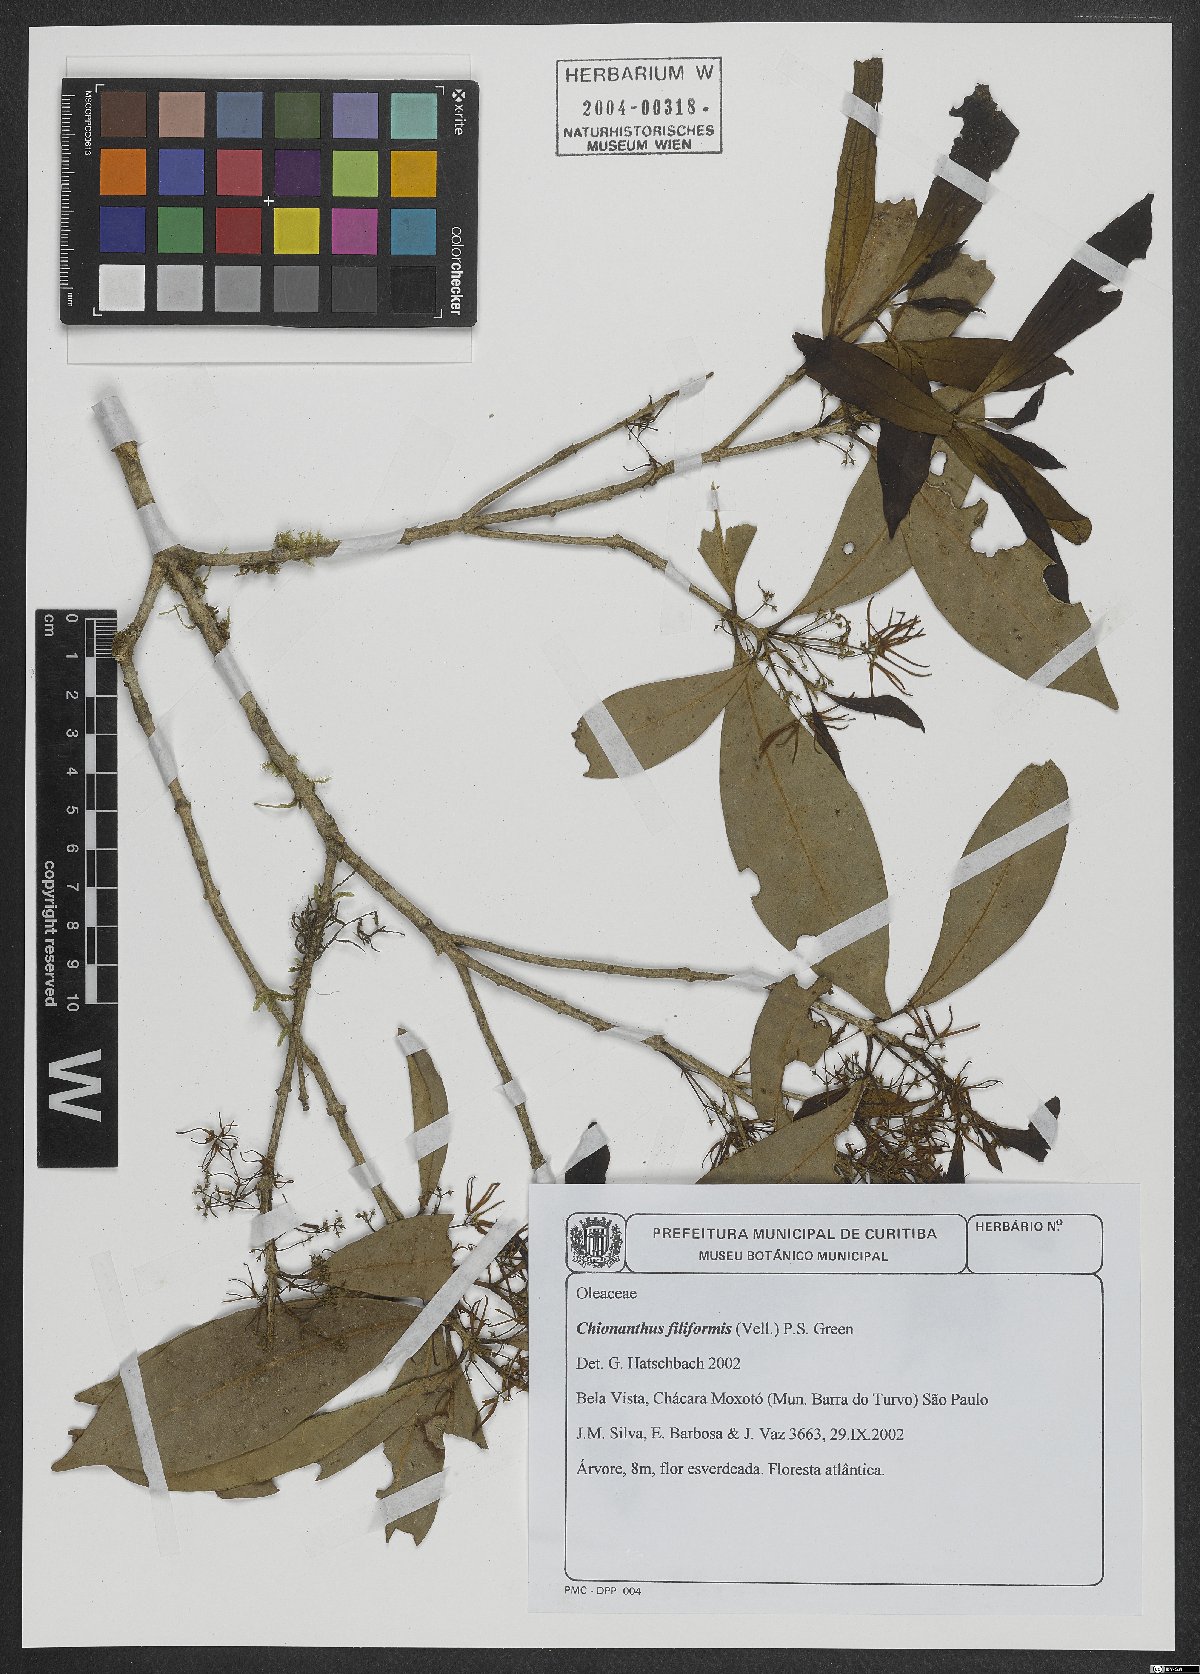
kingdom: Plantae
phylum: Tracheophyta
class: Magnoliopsida
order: Lamiales
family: Oleaceae
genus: Chionanthus
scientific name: Chionanthus filiformis
